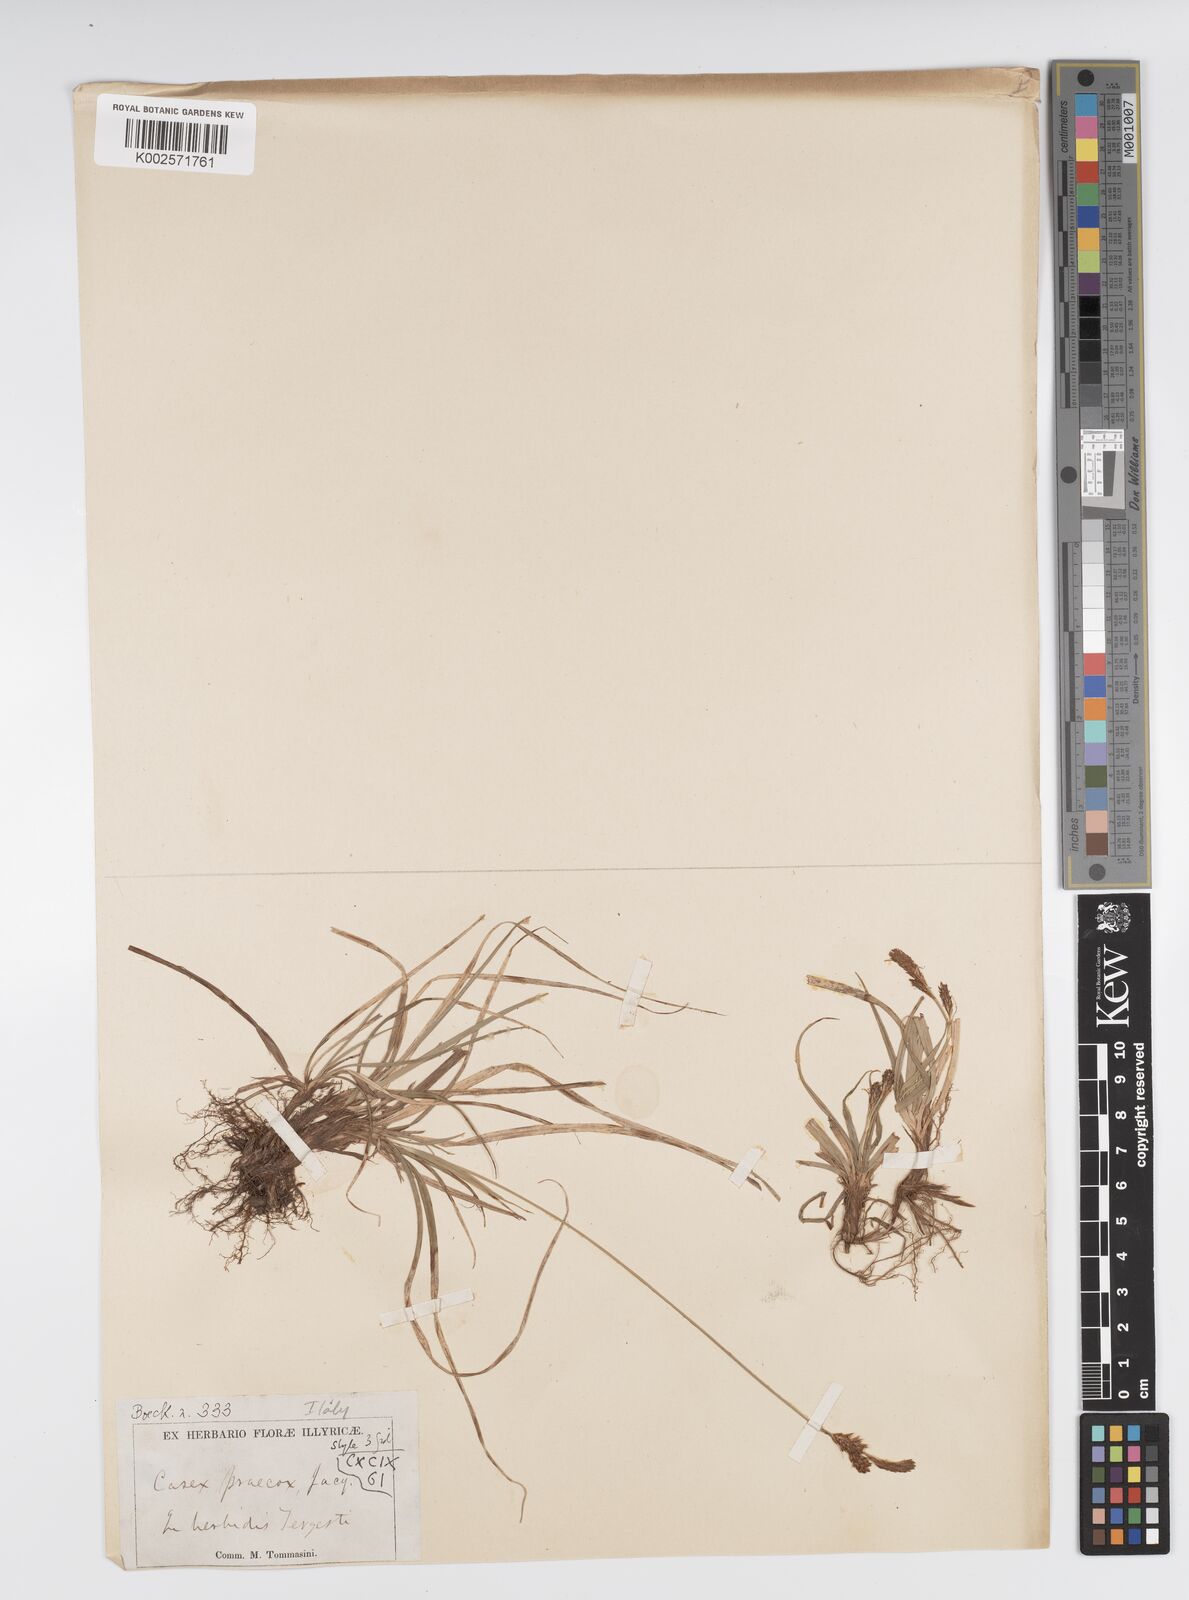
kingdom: Plantae
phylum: Tracheophyta
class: Liliopsida
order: Poales
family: Cyperaceae
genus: Carex
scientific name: Carex caryophyllea
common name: Spring sedge
